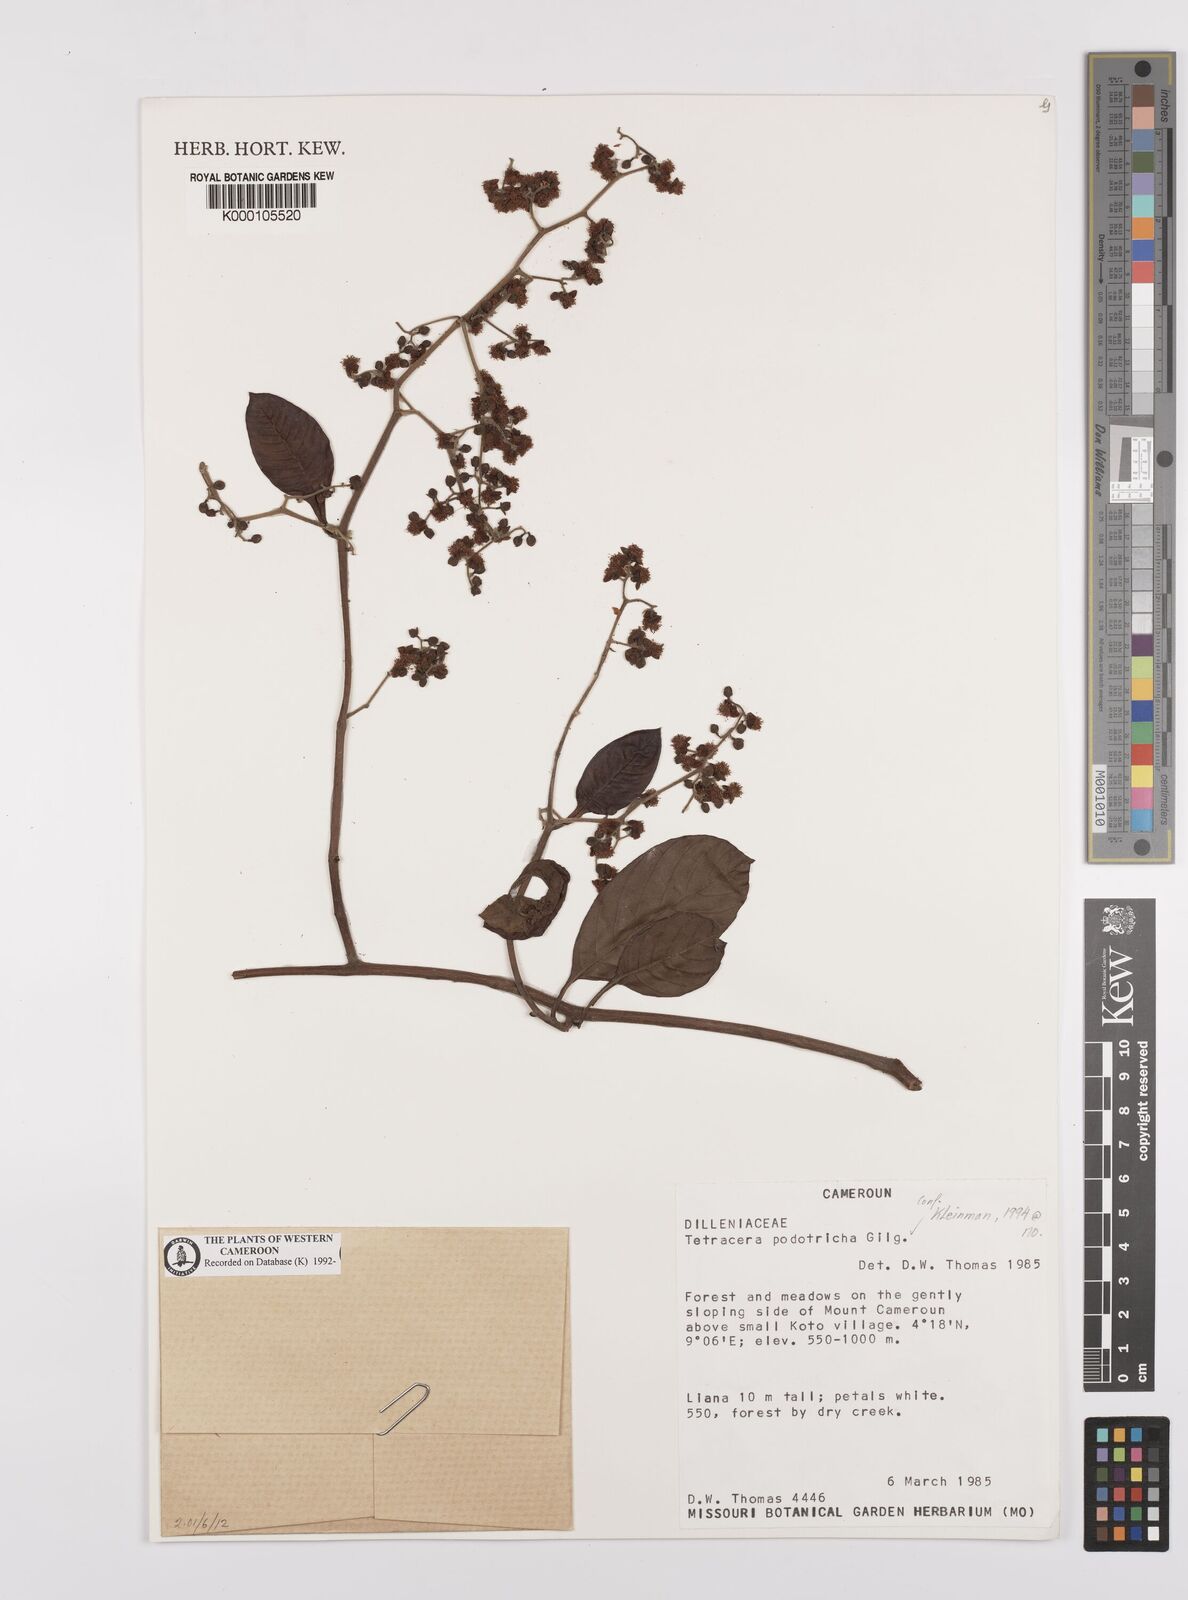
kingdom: Plantae
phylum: Tracheophyta
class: Magnoliopsida
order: Dilleniales
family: Dilleniaceae
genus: Tetracera
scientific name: Tetracera alnifolia
